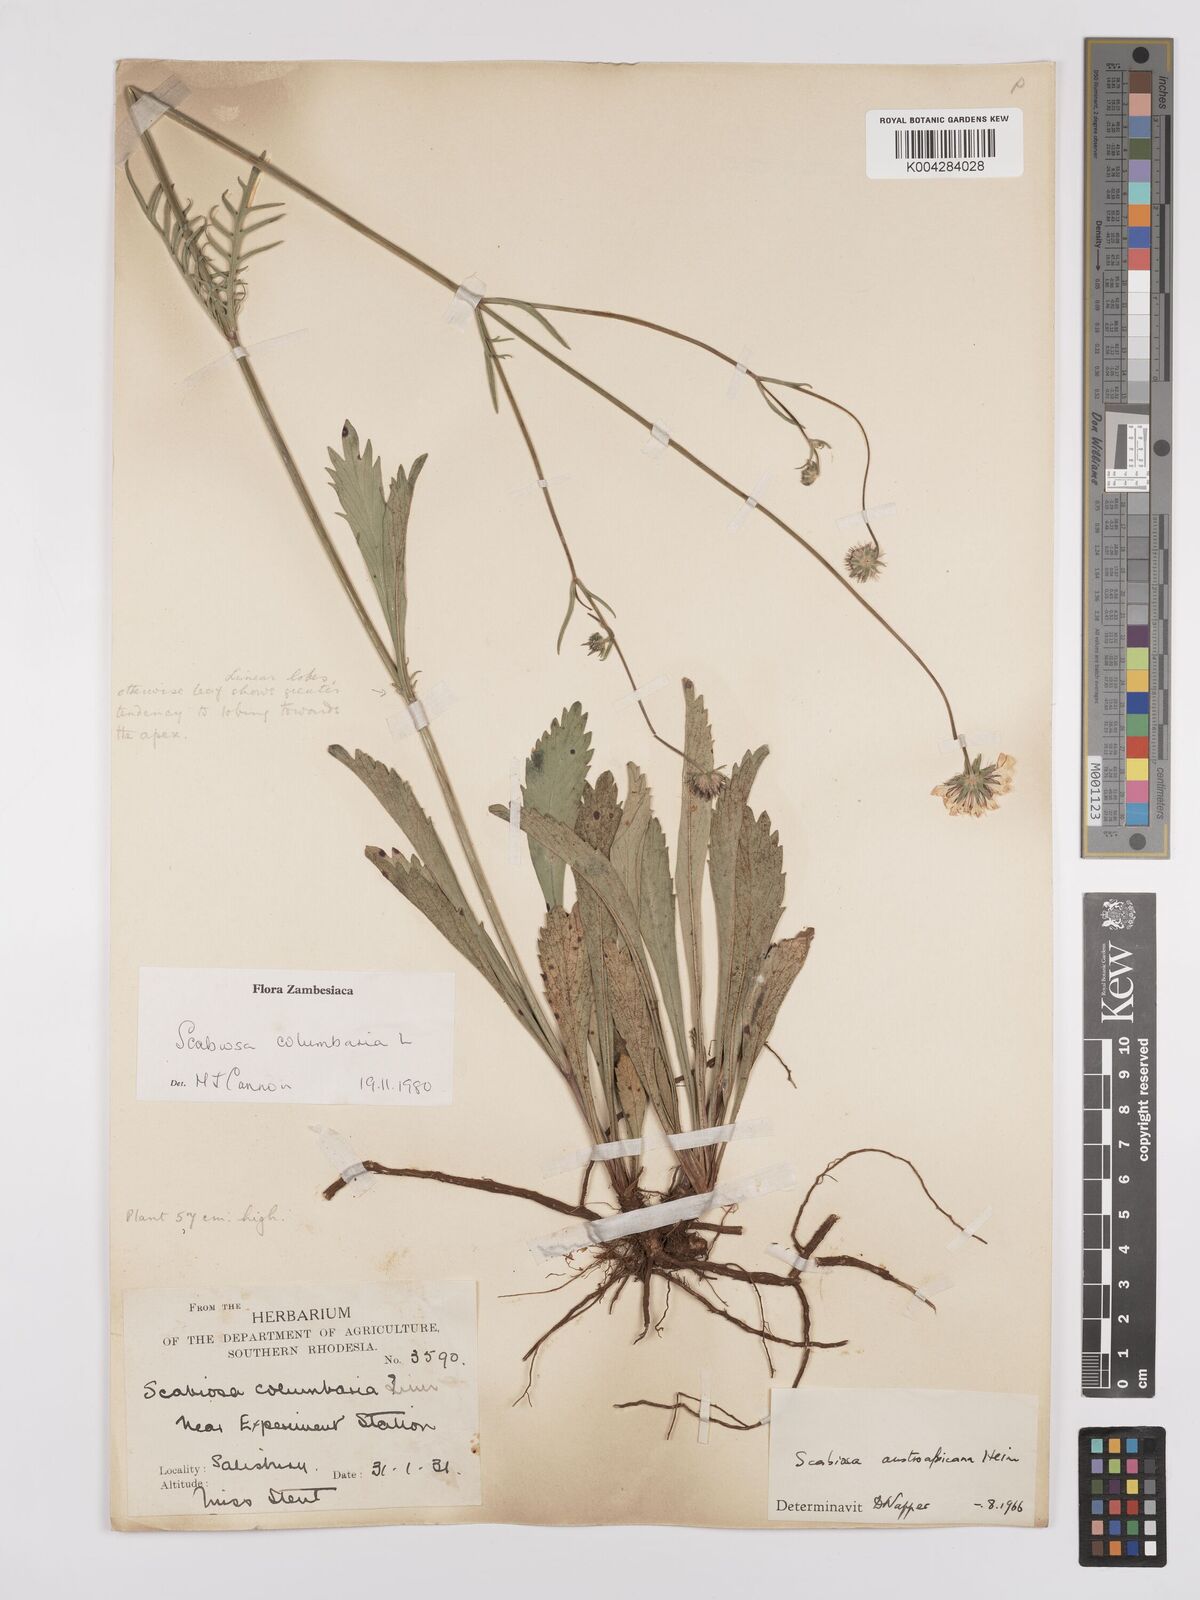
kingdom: Plantae
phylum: Tracheophyta
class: Magnoliopsida
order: Dipsacales
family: Caprifoliaceae
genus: Scabiosa
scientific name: Scabiosa austroafricana
